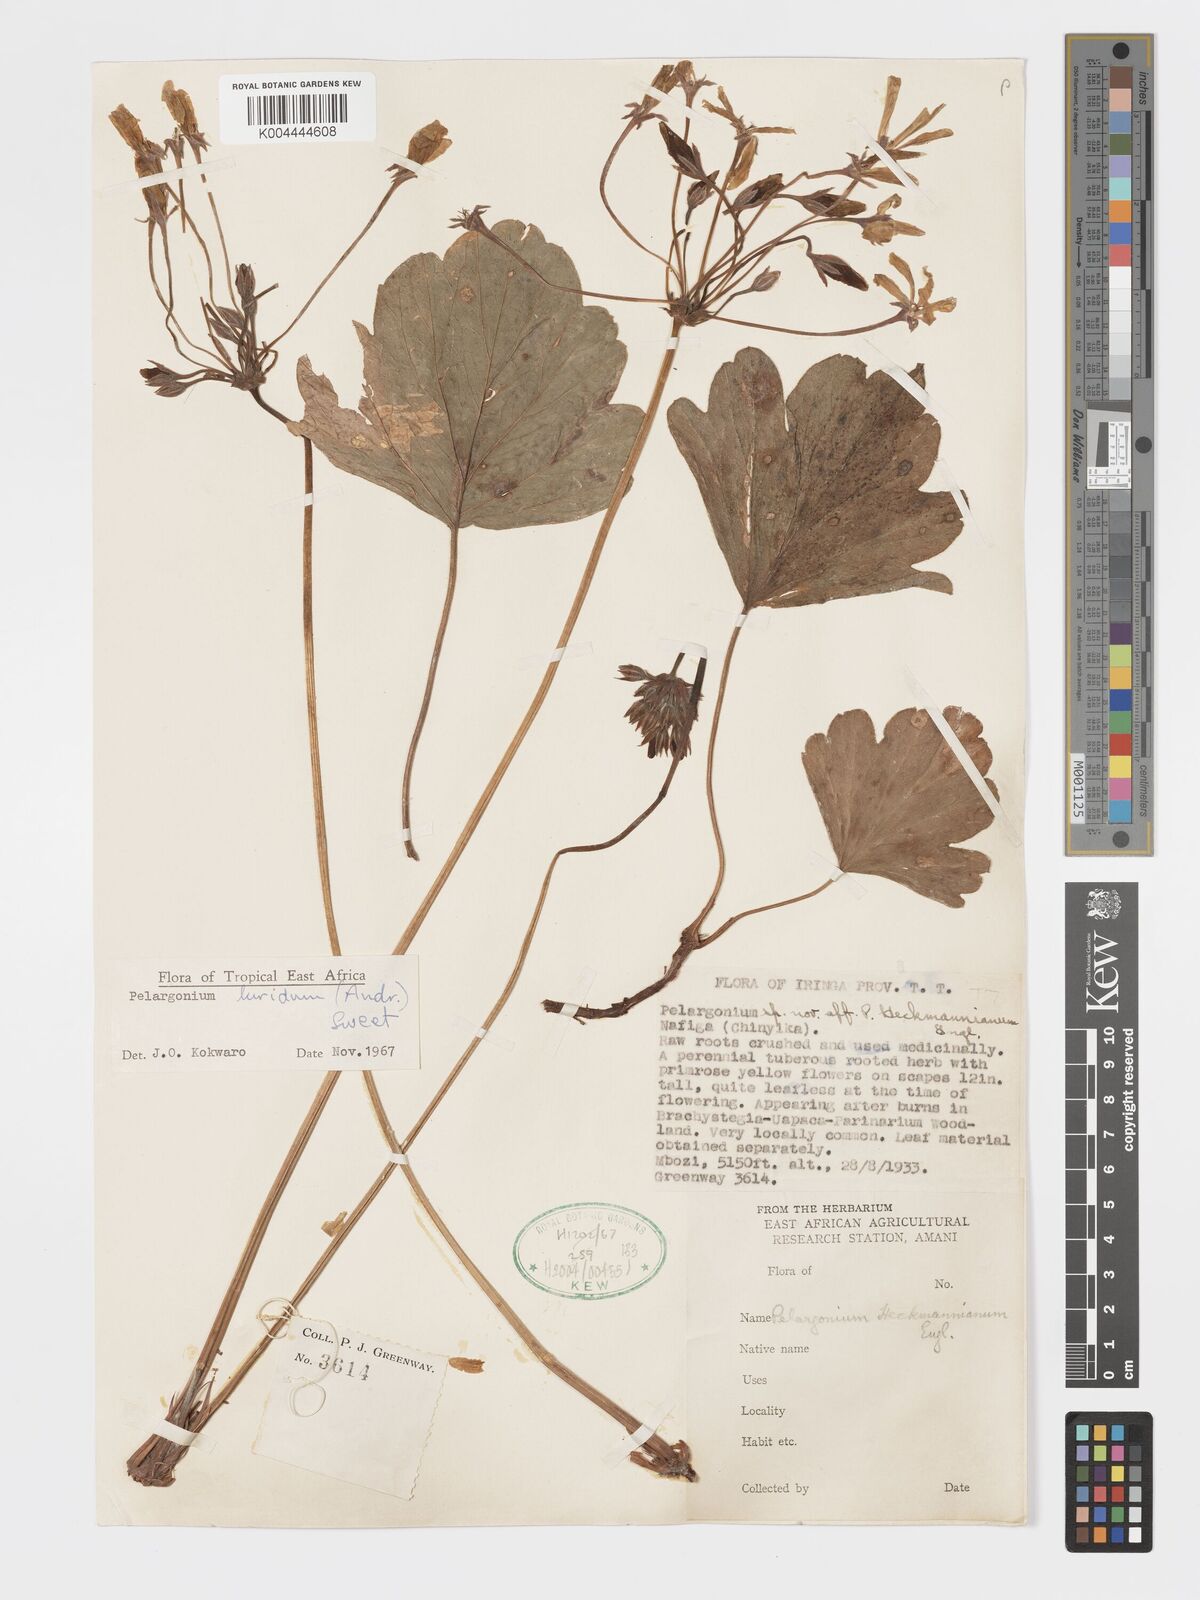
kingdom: Plantae
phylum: Tracheophyta
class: Magnoliopsida
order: Geraniales
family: Geraniaceae
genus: Pelargonium
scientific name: Pelargonium luridum
